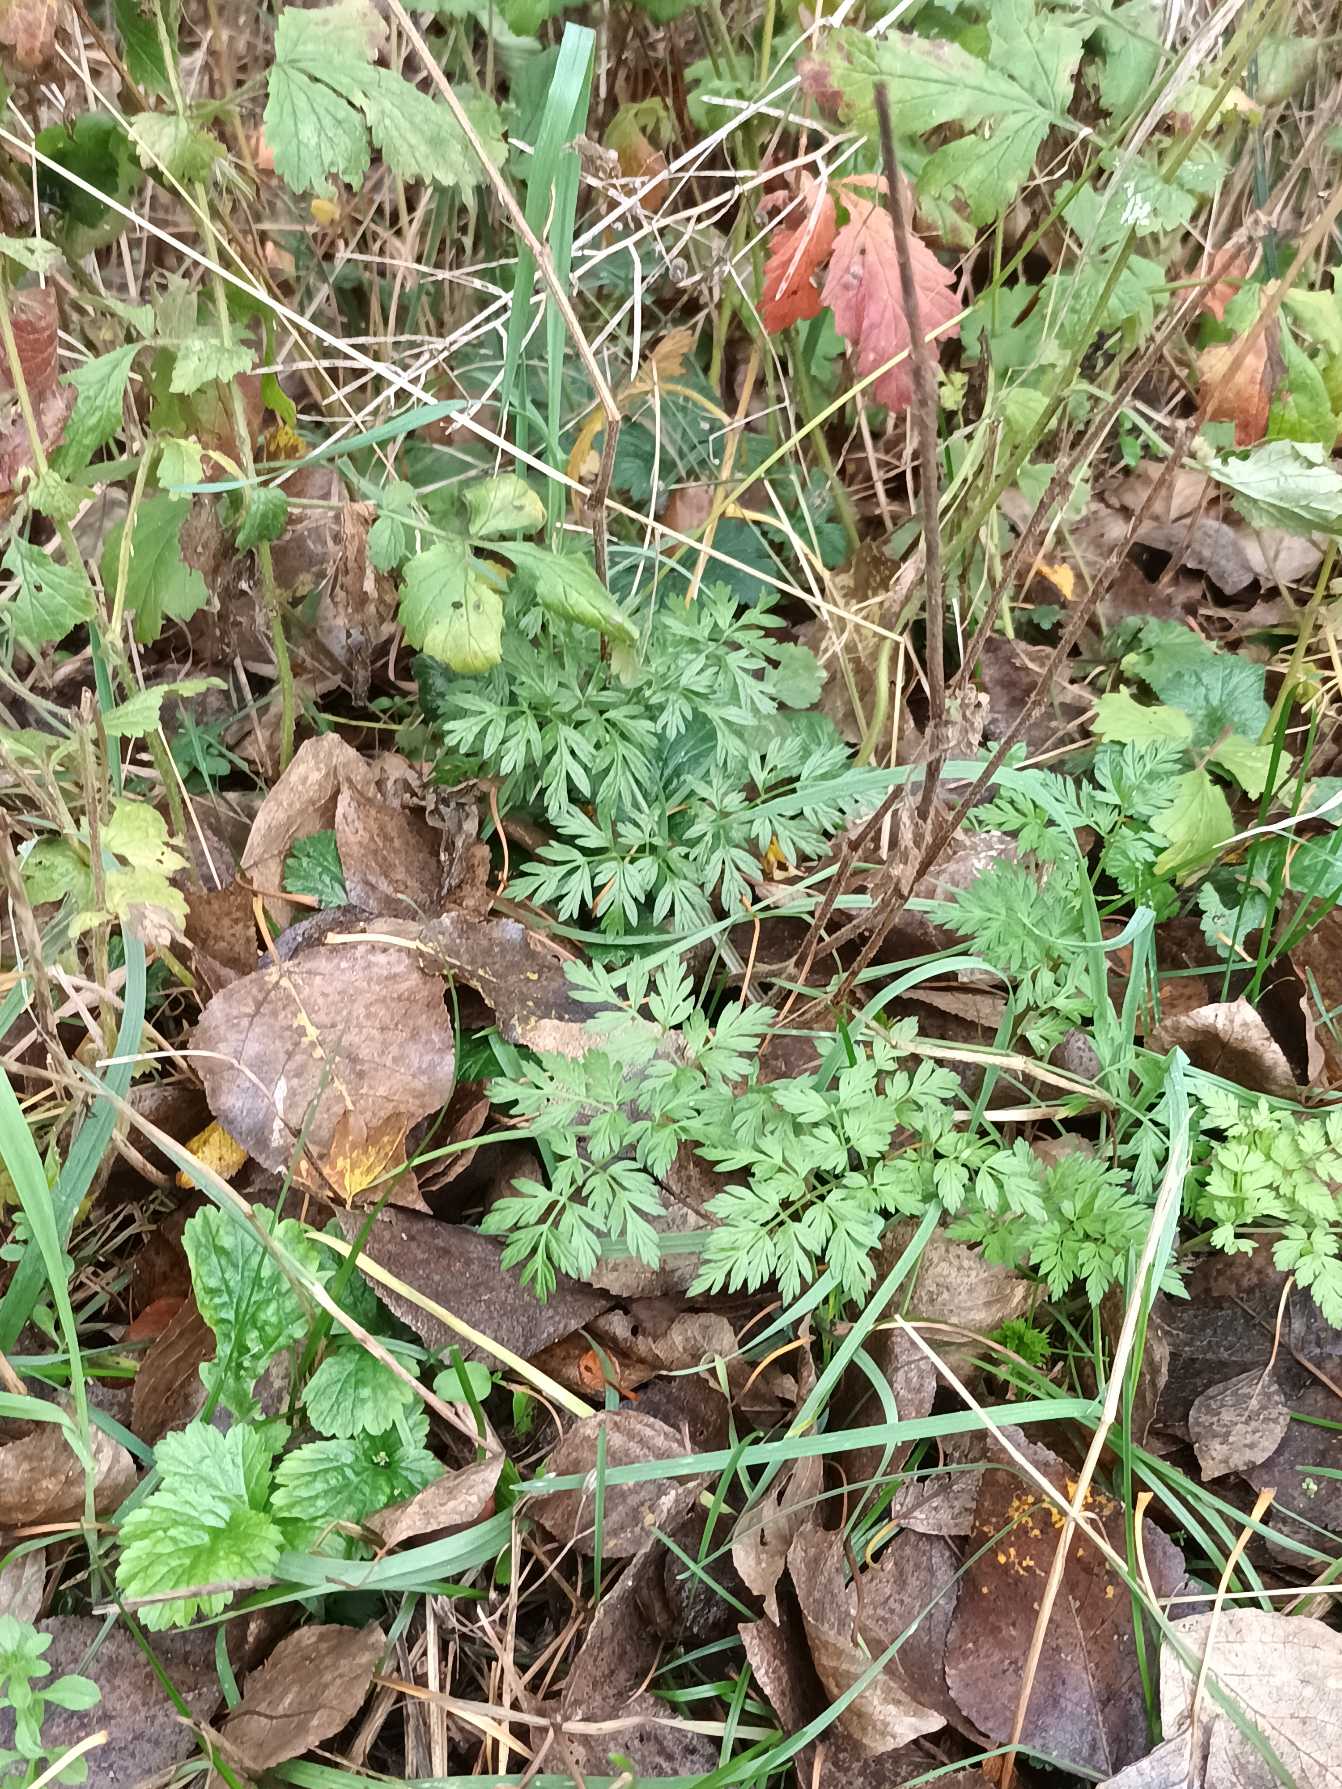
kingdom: Plantae
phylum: Tracheophyta
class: Magnoliopsida
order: Apiales
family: Apiaceae
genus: Anthriscus
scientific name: Anthriscus sylvestris
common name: Vild kørvel
